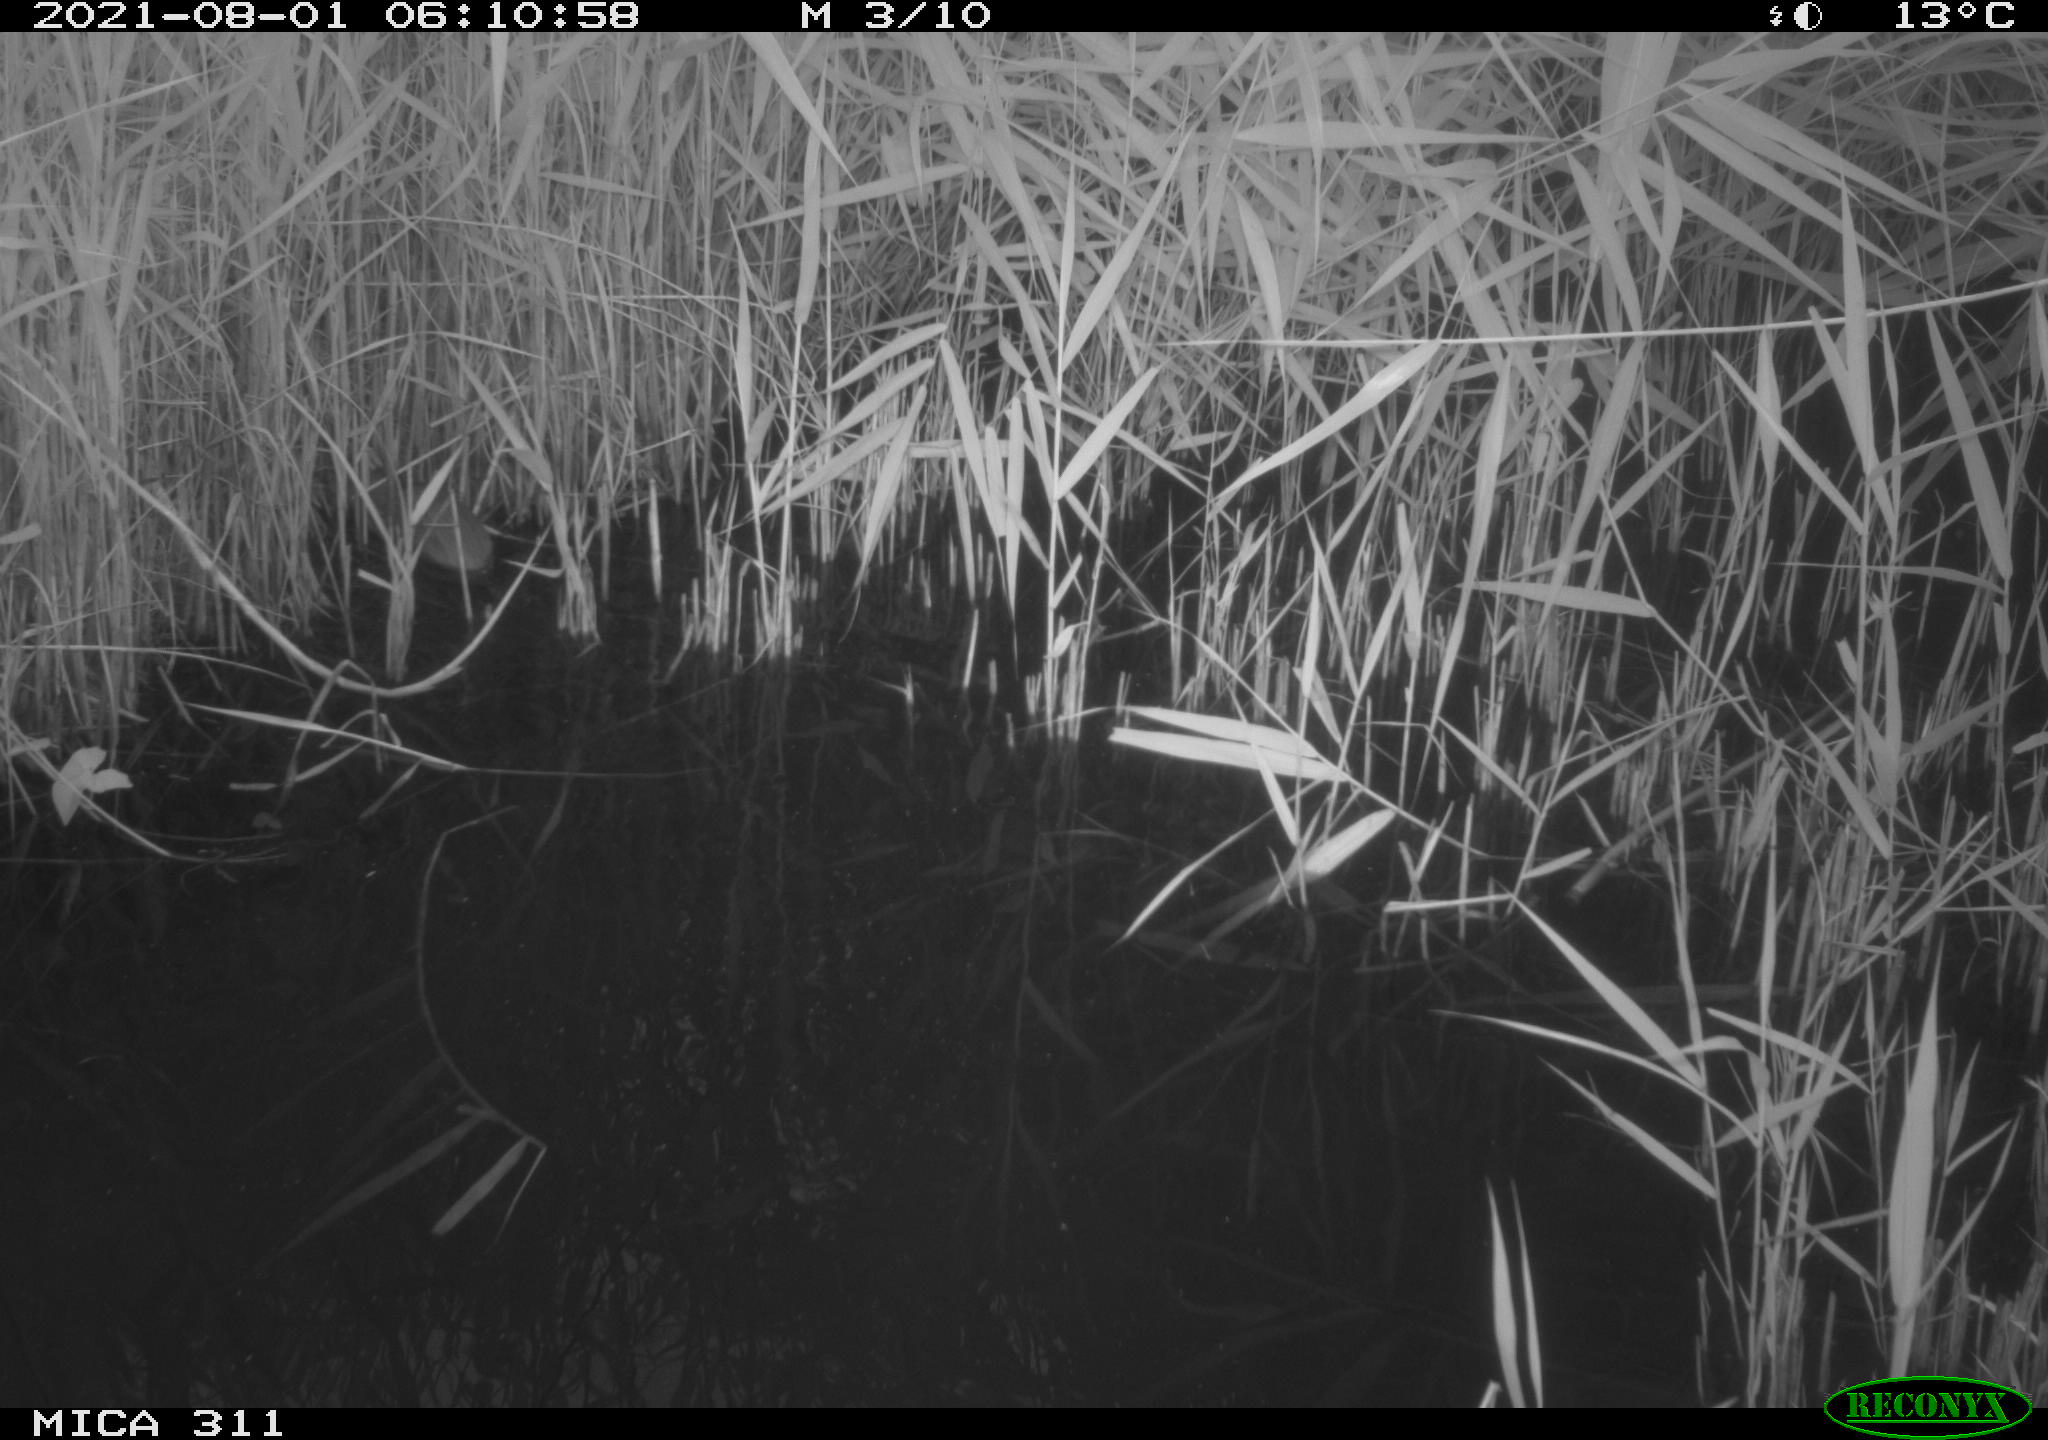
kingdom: Animalia
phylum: Chordata
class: Mammalia
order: Rodentia
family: Muridae
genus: Rattus
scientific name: Rattus norvegicus
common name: Brown rat
